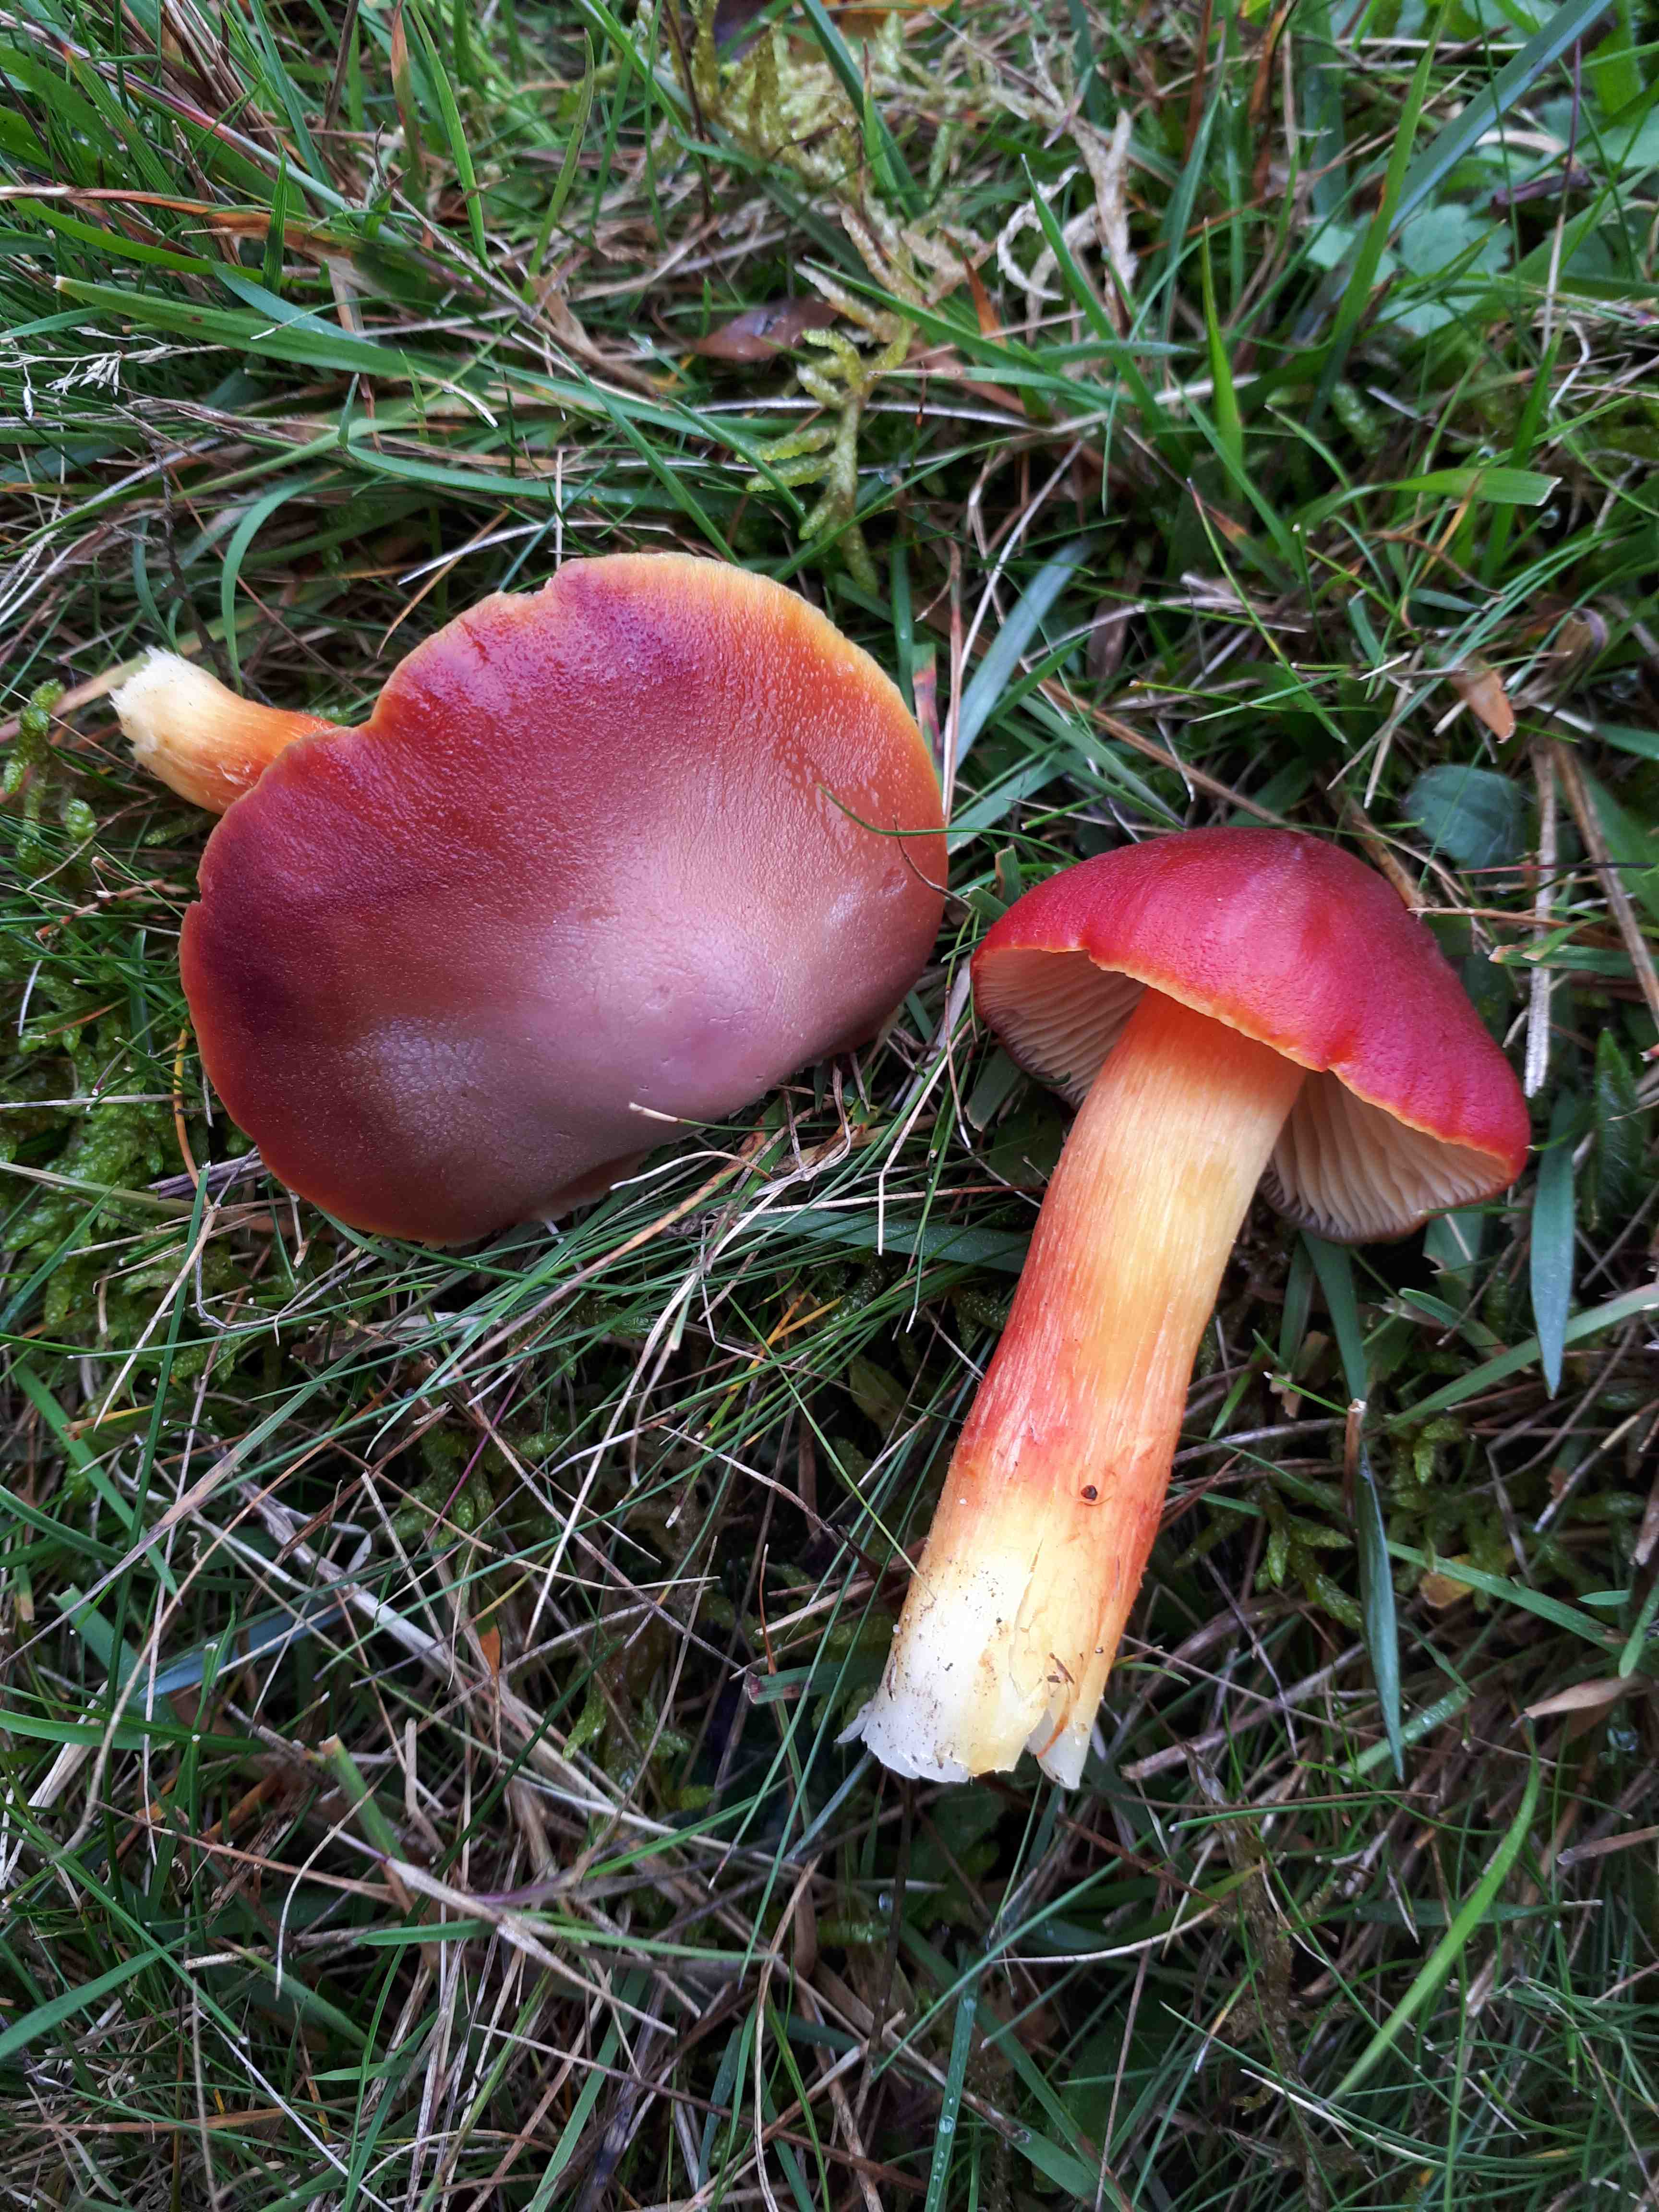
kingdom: Fungi
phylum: Basidiomycota
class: Agaricomycetes
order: Agaricales
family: Hygrophoraceae
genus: Hygrocybe
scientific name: Hygrocybe punicea
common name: skarlagen-vokshat
